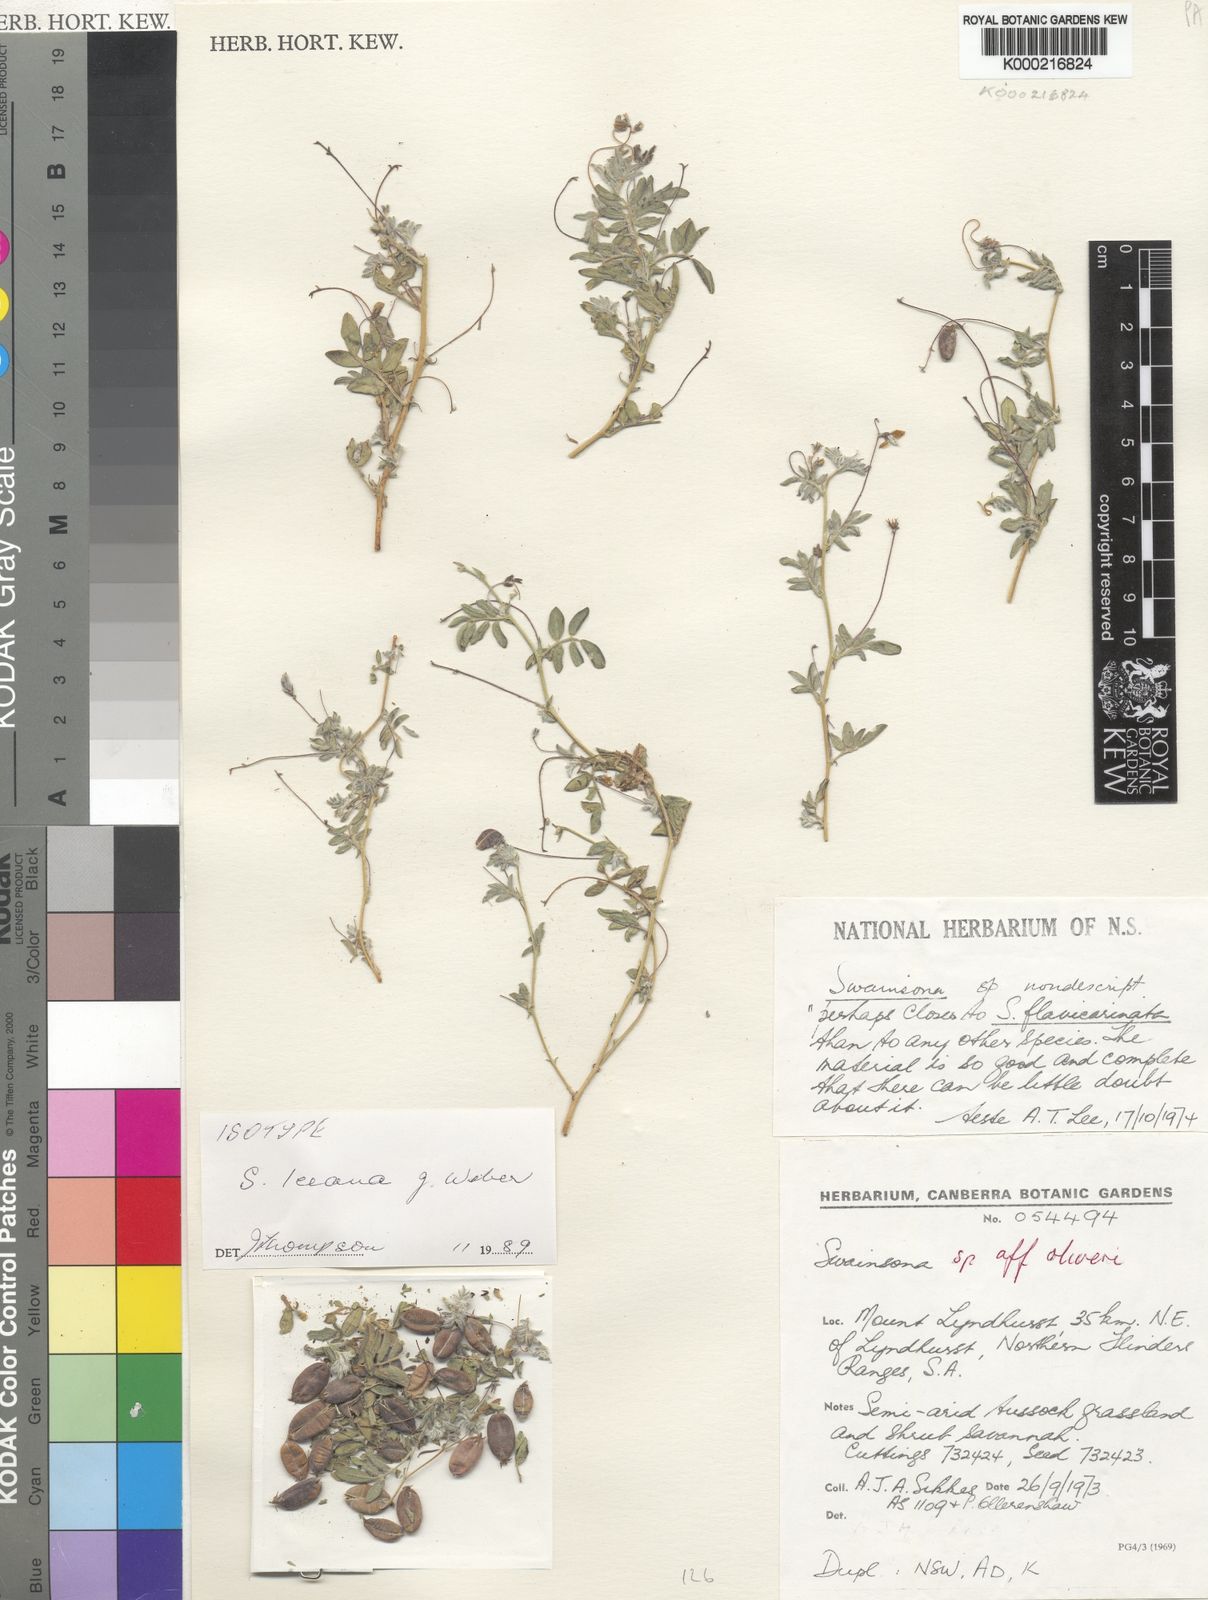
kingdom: Plantae
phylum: Tracheophyta
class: Magnoliopsida
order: Fabales
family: Fabaceae
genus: Swainsona
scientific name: Swainsona leeana
